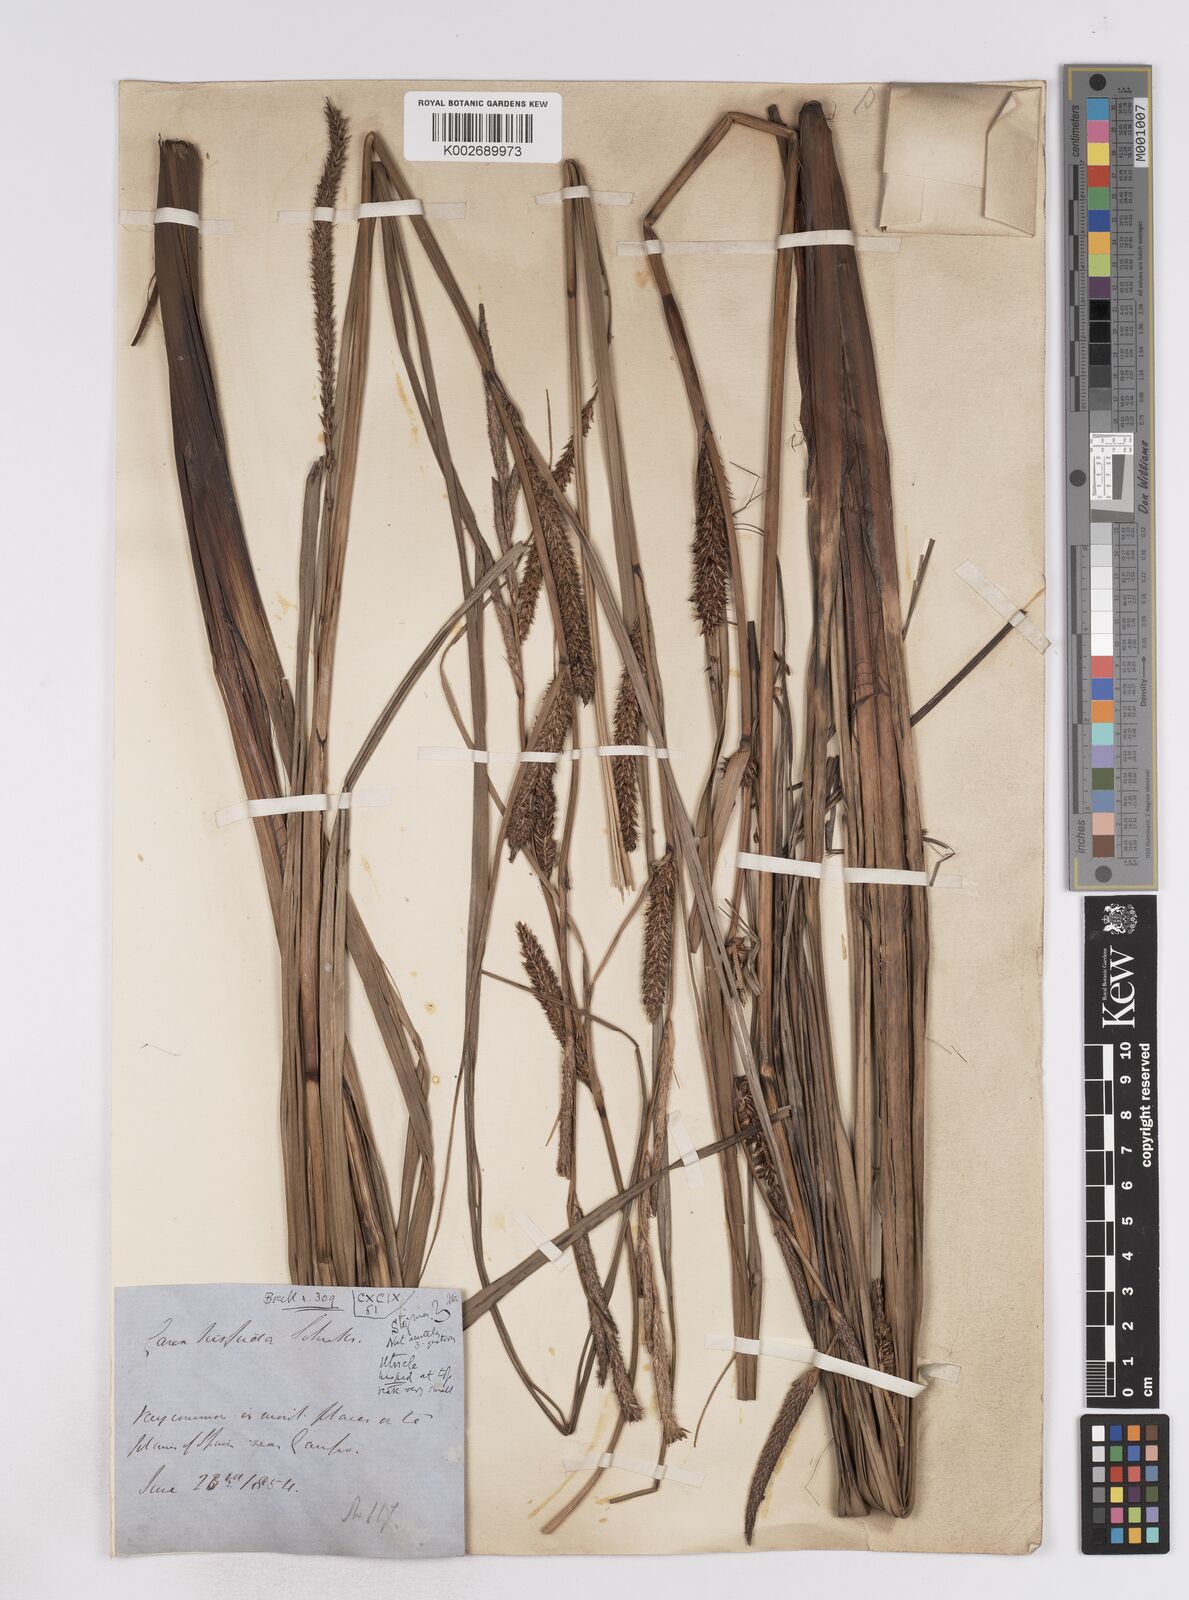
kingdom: Plantae
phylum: Tracheophyta
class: Liliopsida
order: Poales
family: Cyperaceae
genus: Carex
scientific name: Carex hispida
